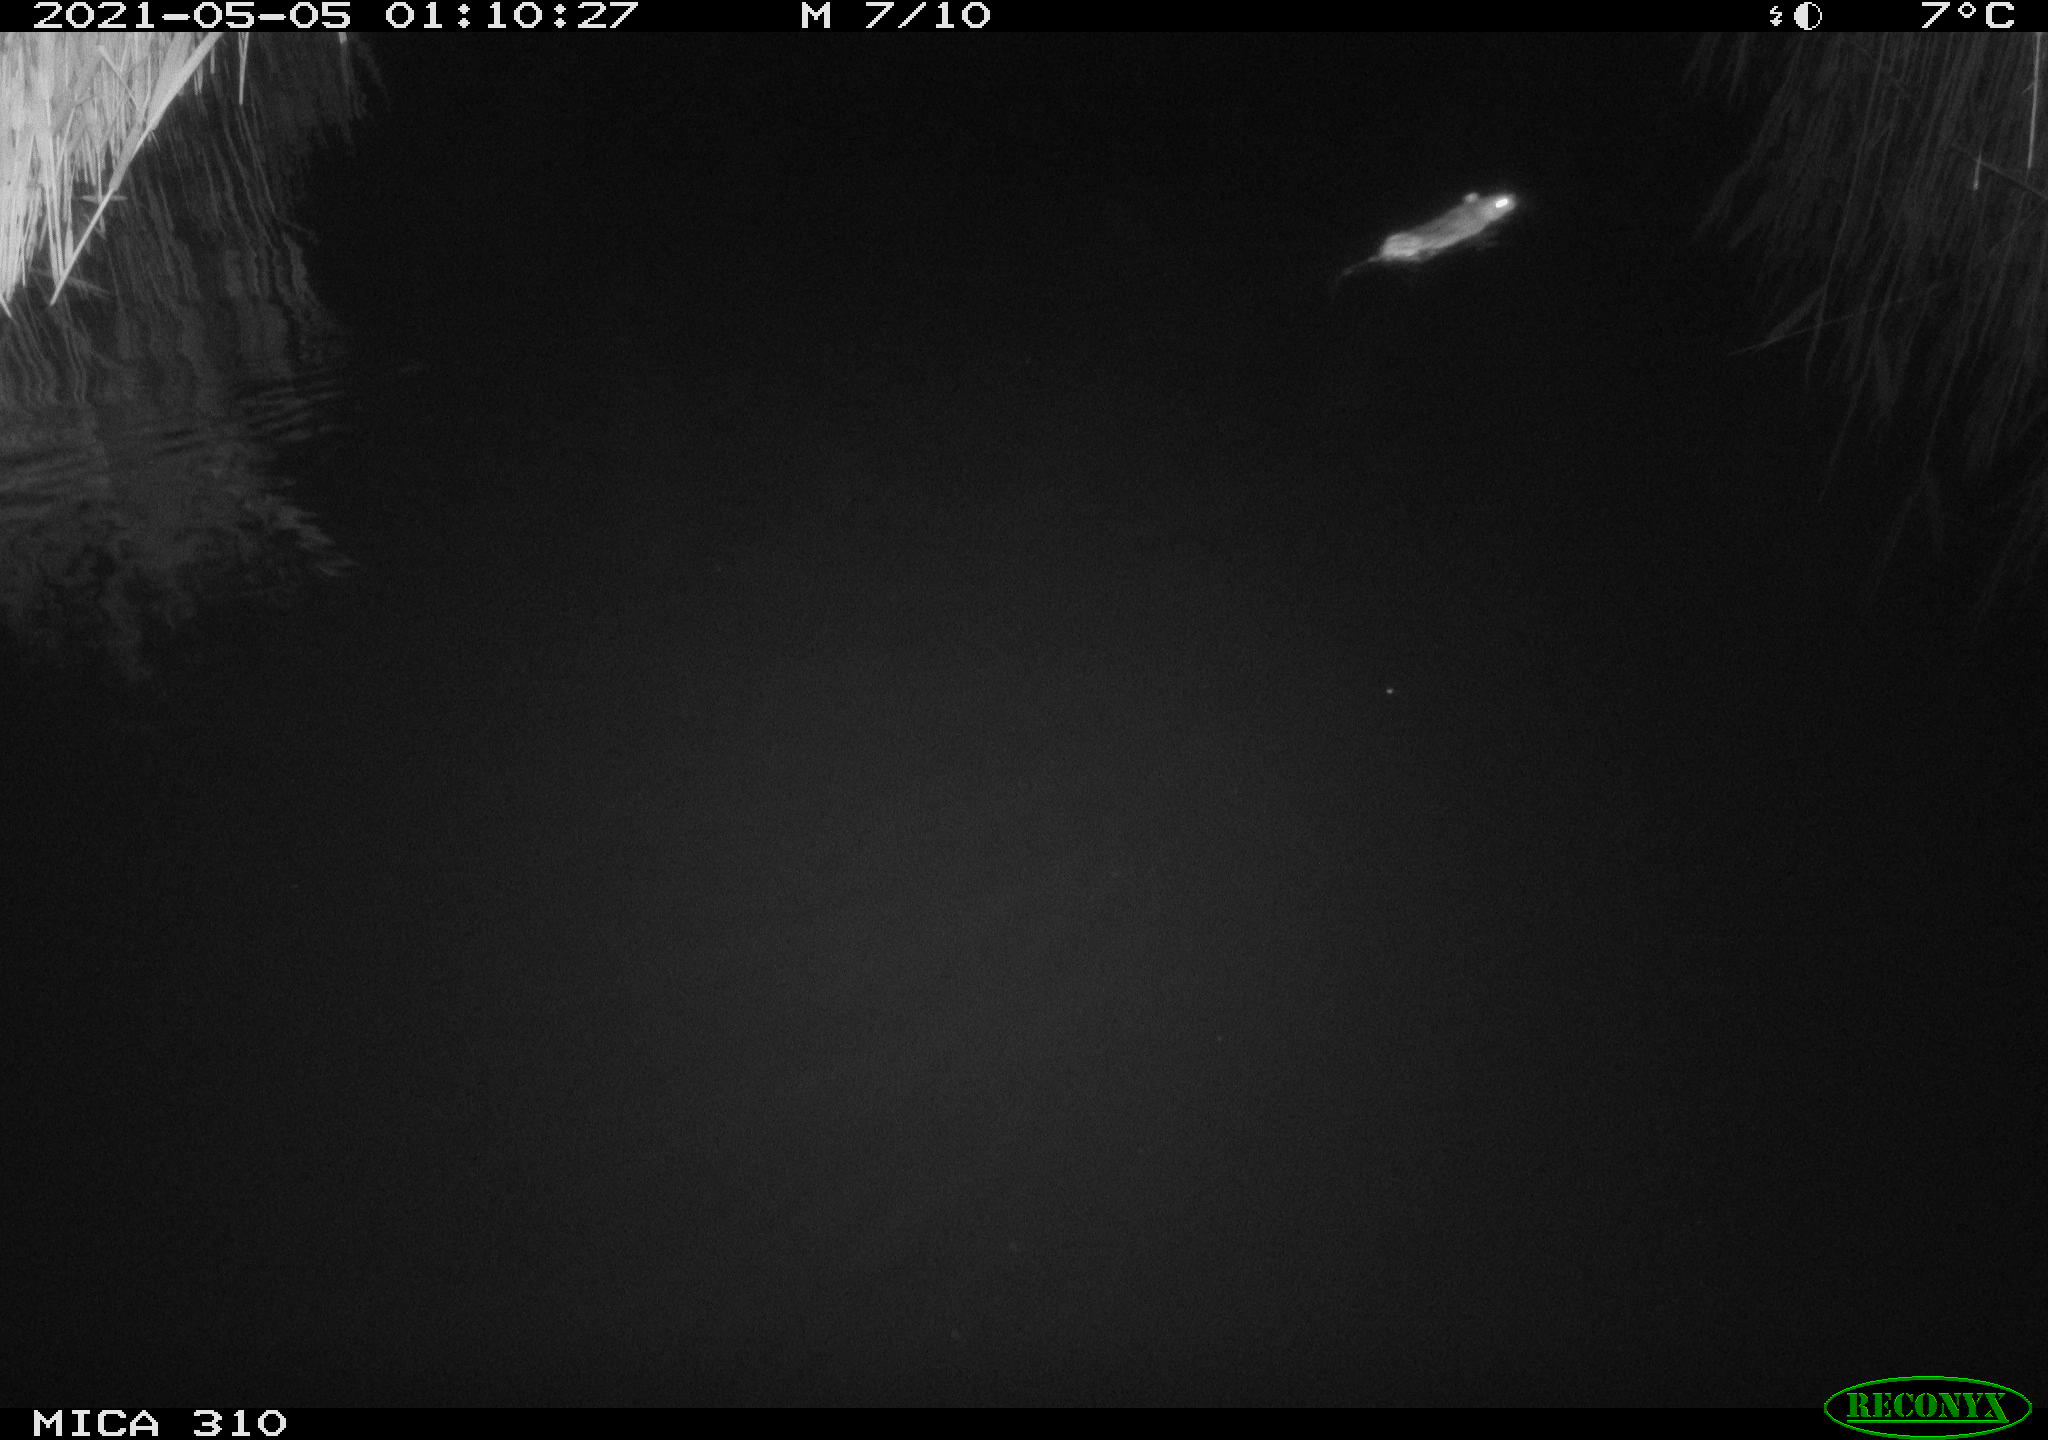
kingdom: Animalia
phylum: Chordata
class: Mammalia
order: Rodentia
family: Muridae
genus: Rattus
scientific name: Rattus norvegicus
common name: Brown rat
